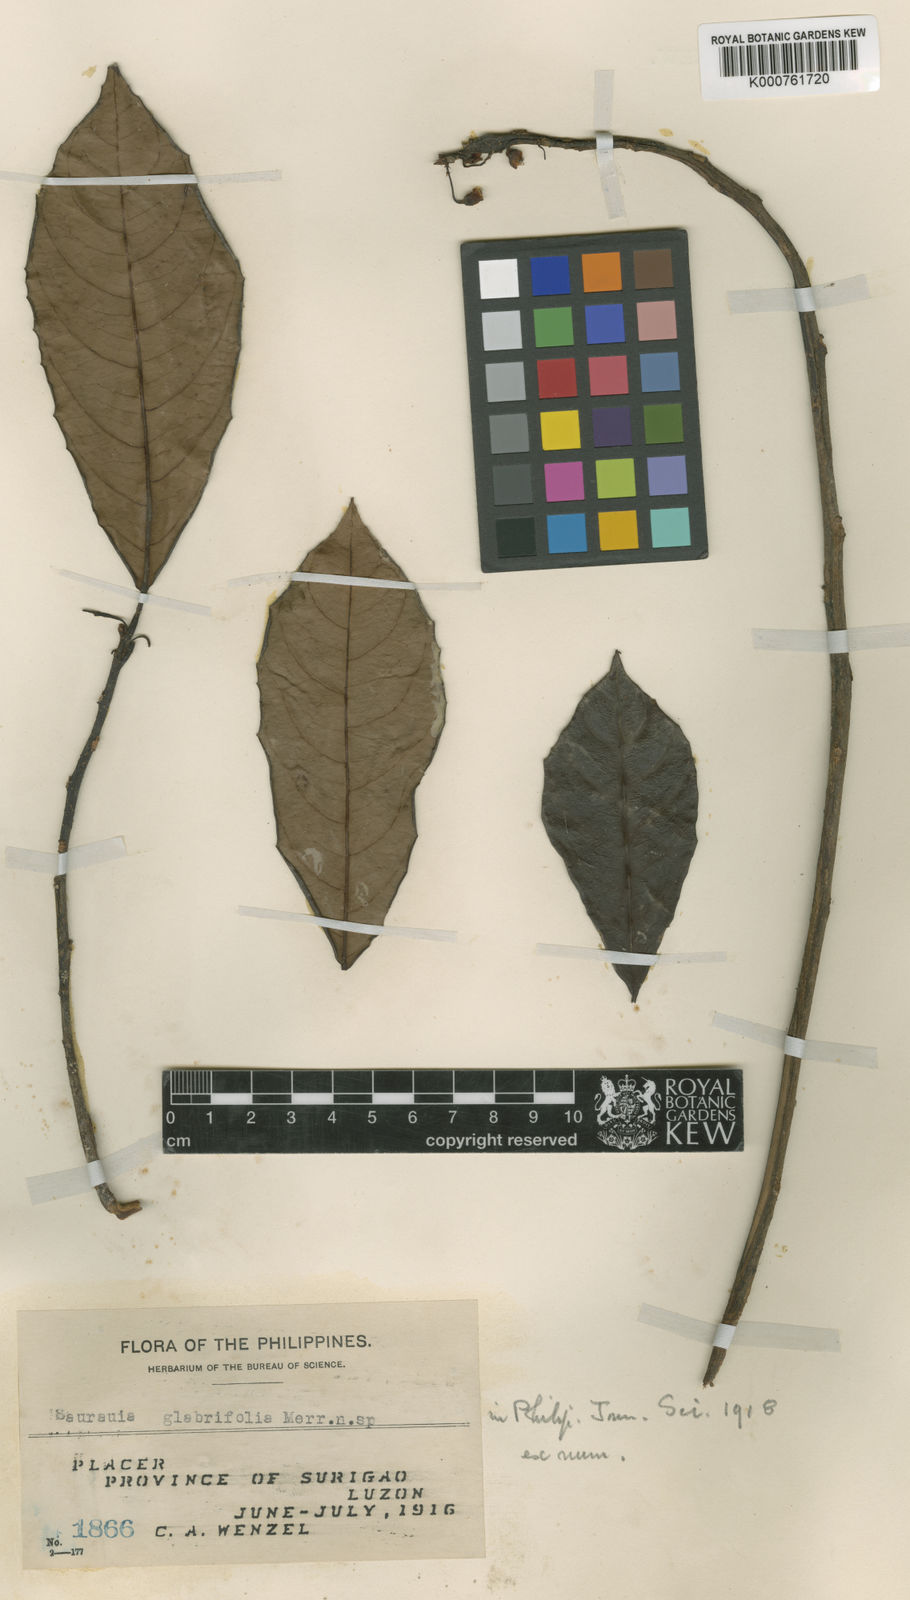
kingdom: Plantae
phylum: Tracheophyta
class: Magnoliopsida
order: Ericales
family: Actinidiaceae
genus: Saurauia
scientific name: Saurauia glabrifolia
